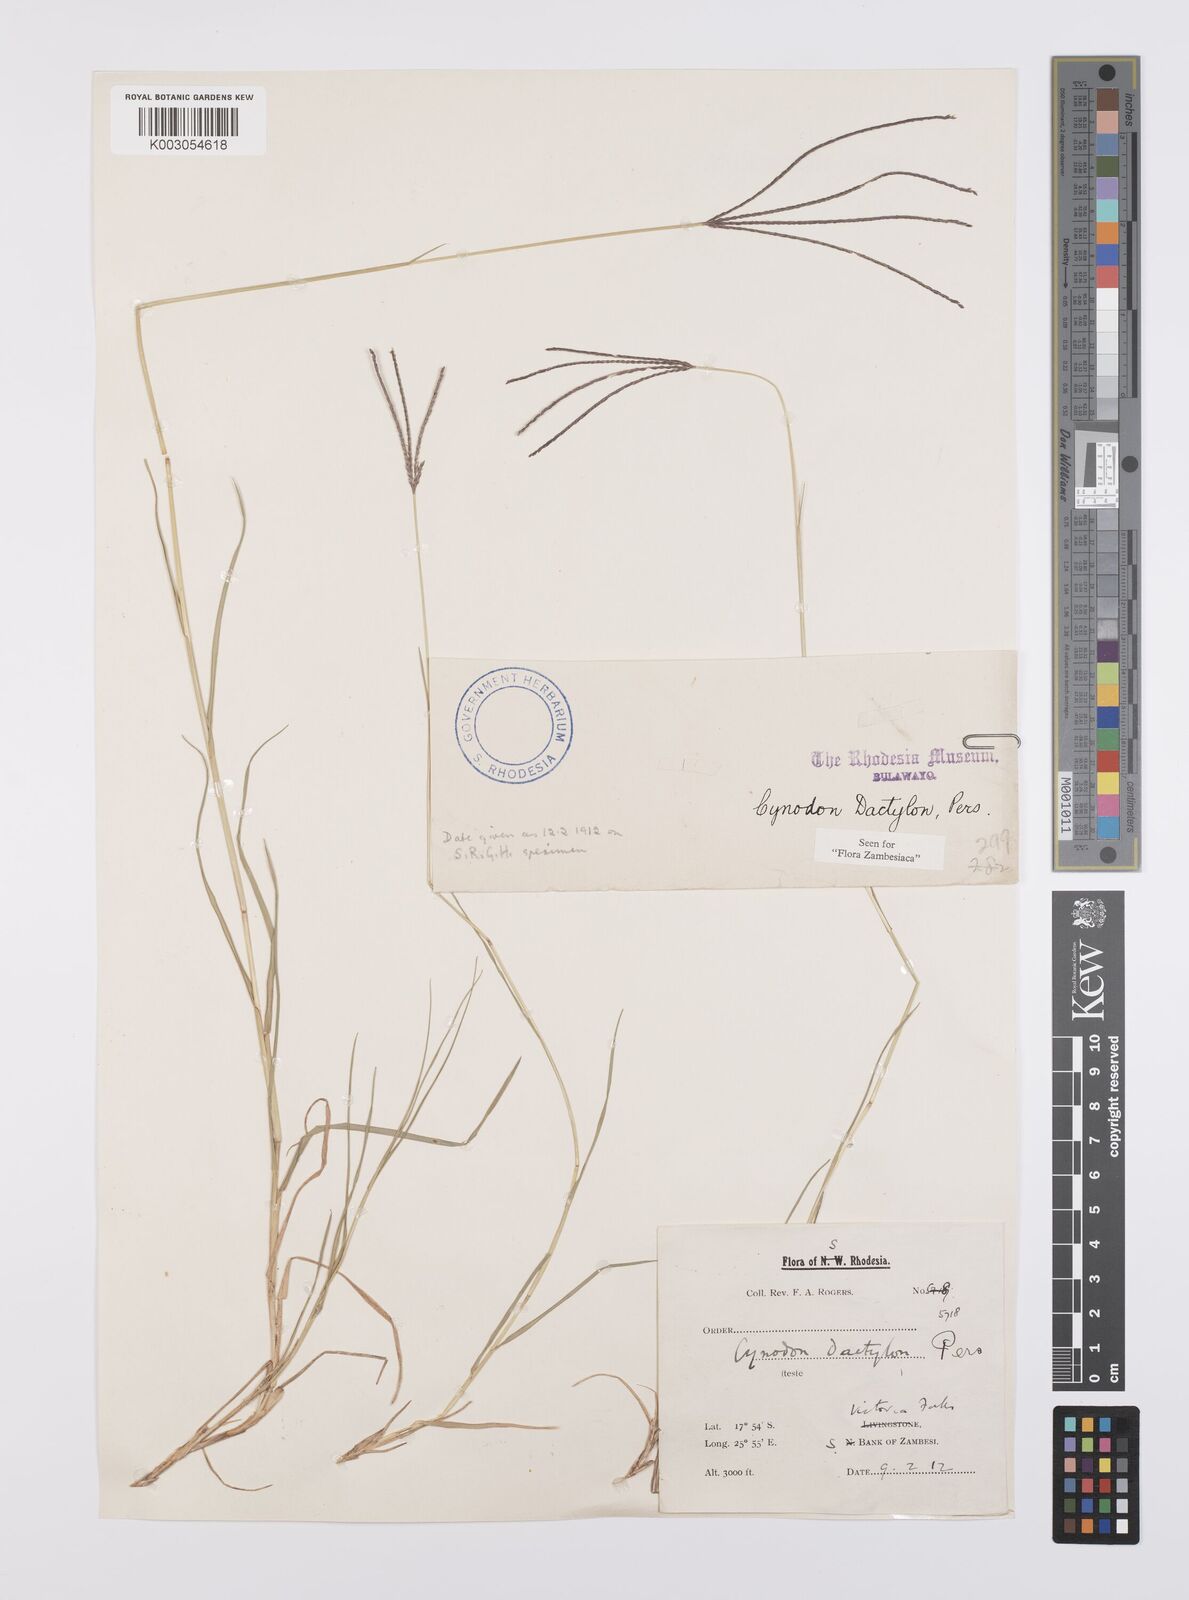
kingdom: Plantae
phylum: Tracheophyta
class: Liliopsida
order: Poales
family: Poaceae
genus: Cynodon
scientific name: Cynodon dactylon
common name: Bermuda grass
